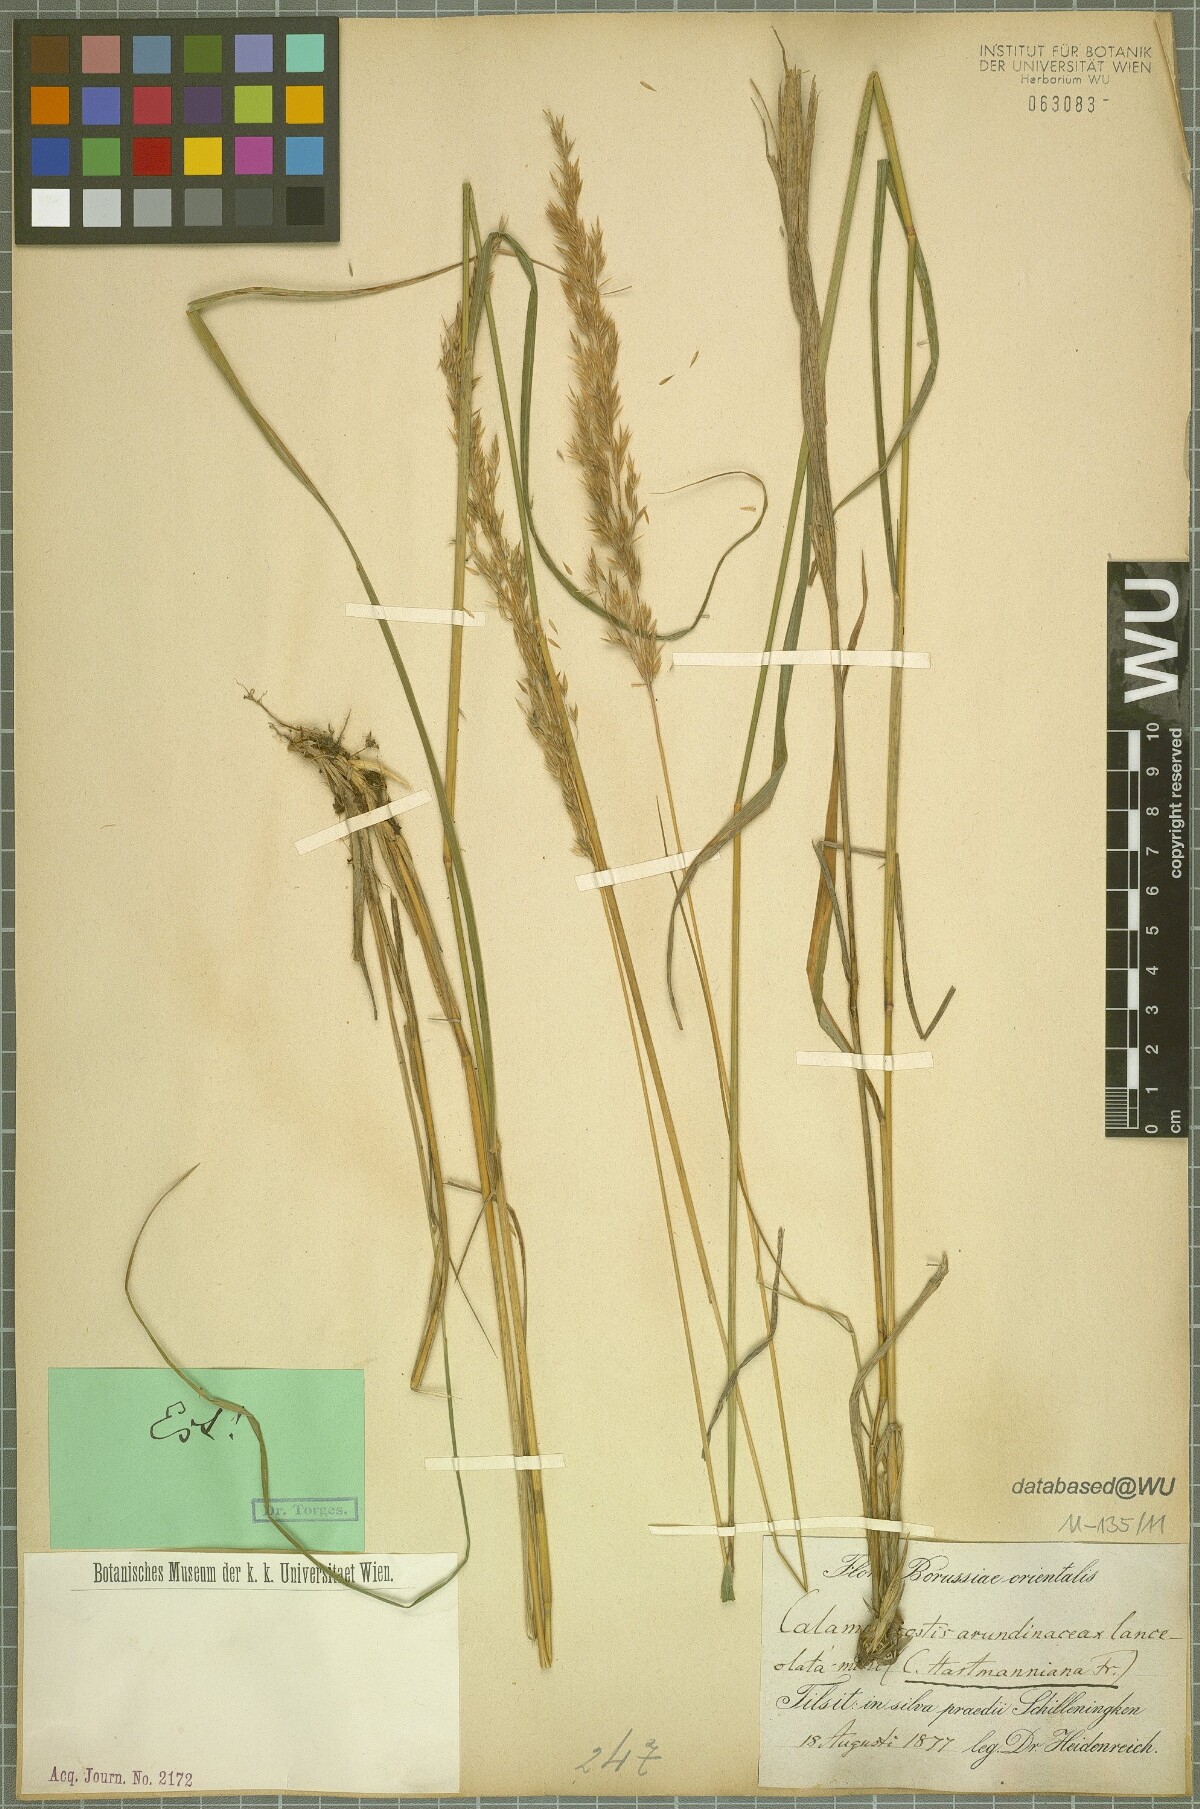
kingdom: Plantae
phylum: Tracheophyta
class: Liliopsida
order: Poales
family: Poaceae
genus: Calamagrostis
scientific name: Calamagrostis
